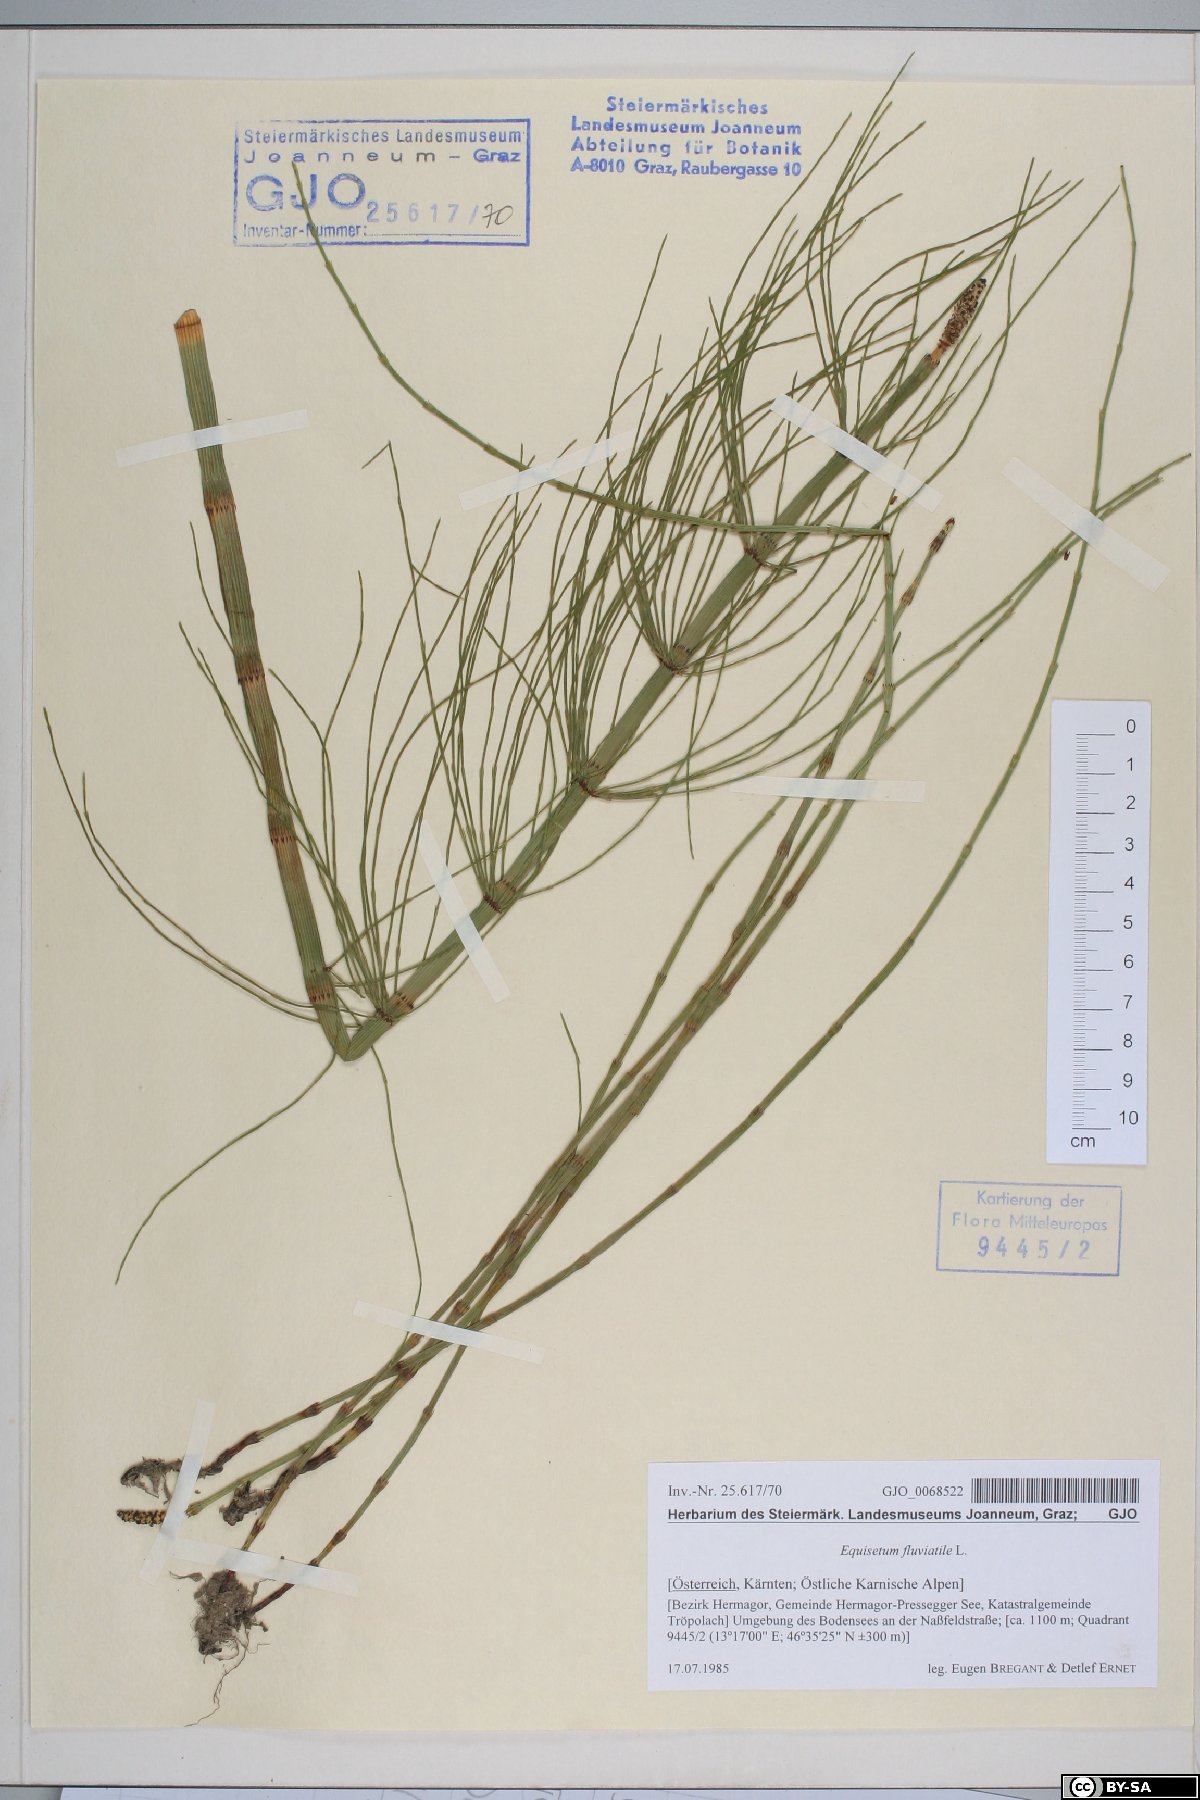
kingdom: Plantae
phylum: Tracheophyta
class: Polypodiopsida
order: Equisetales
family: Equisetaceae
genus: Equisetum
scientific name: Equisetum fluviatile
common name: Water horsetail
